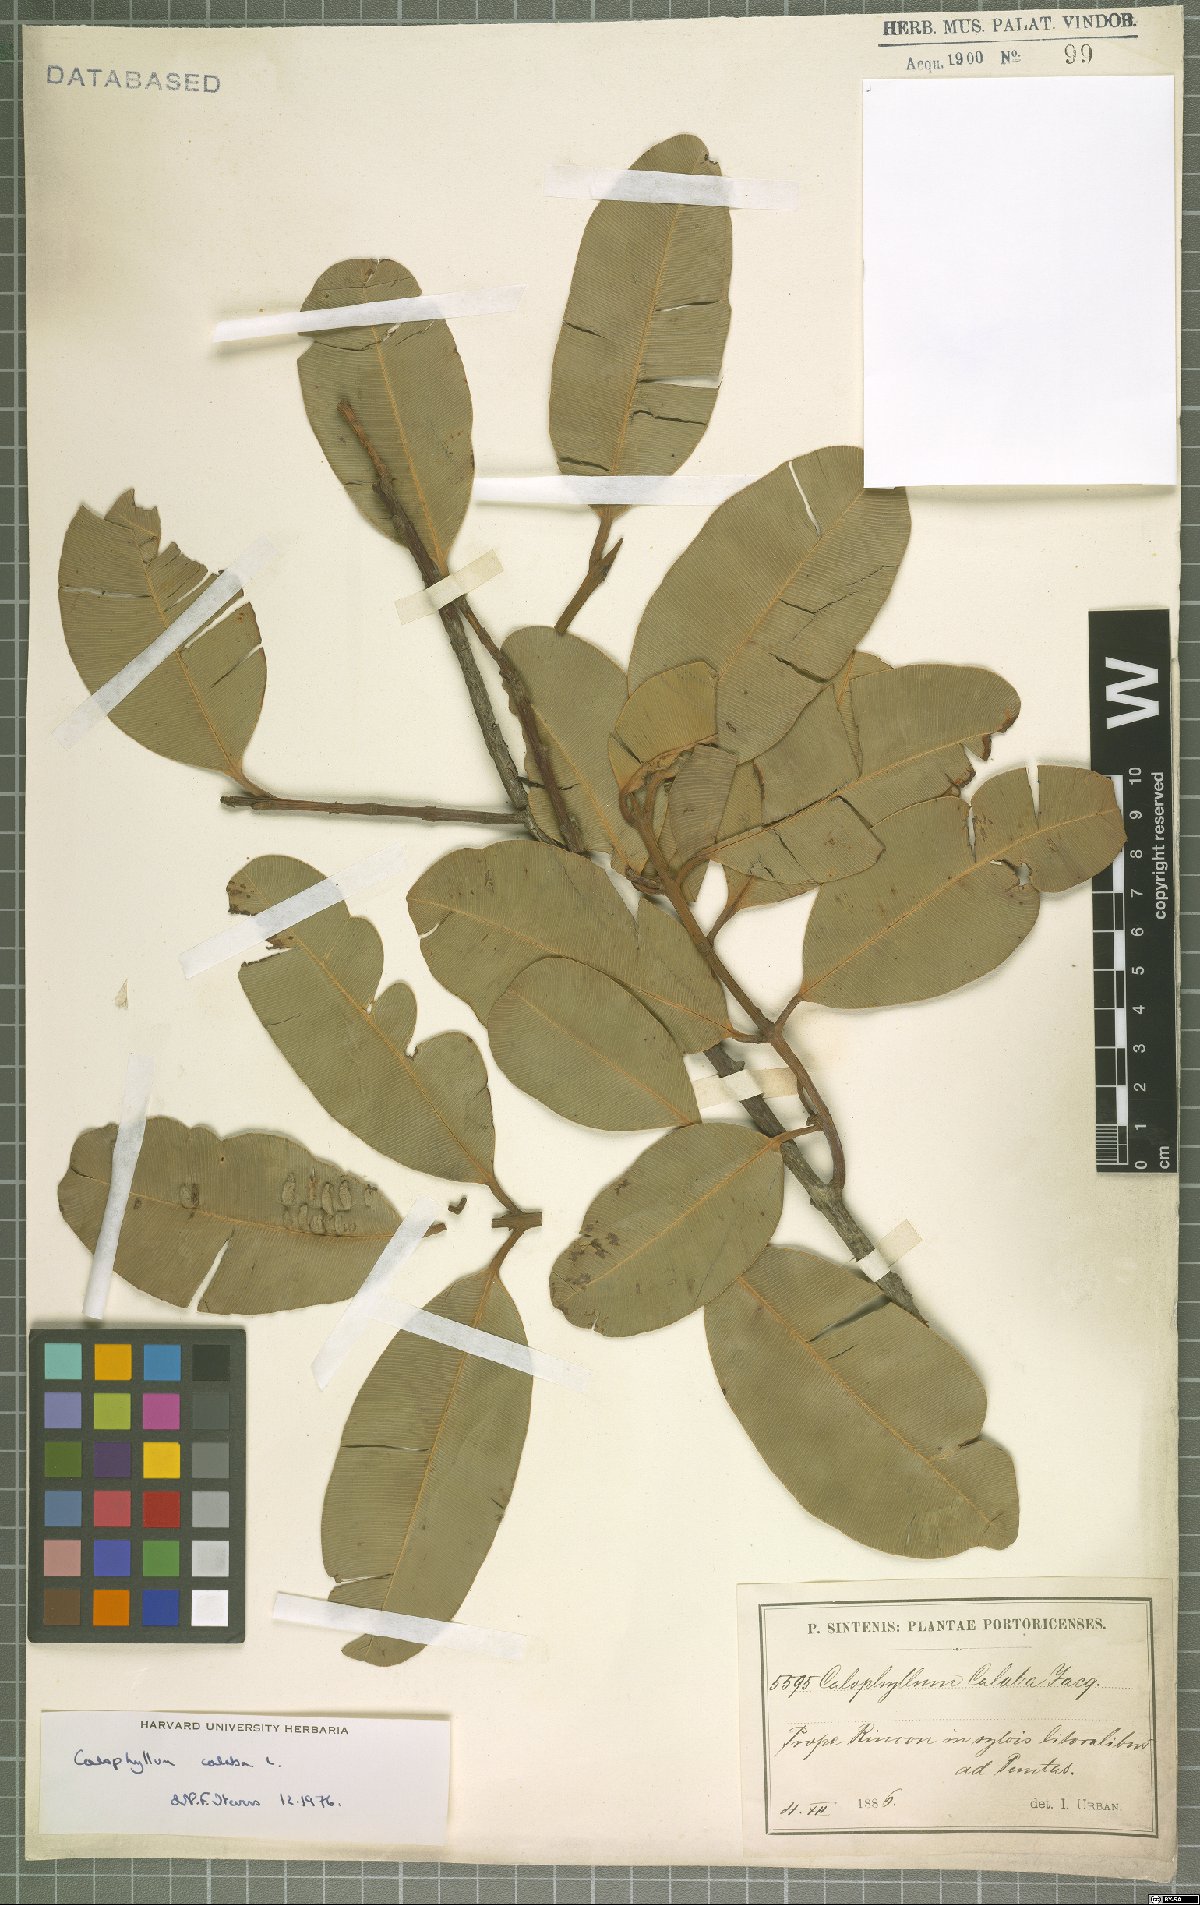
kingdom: Plantae
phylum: Tracheophyta
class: Magnoliopsida
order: Malpighiales
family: Calophyllaceae
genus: Calophyllum
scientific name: Calophyllum calaba
